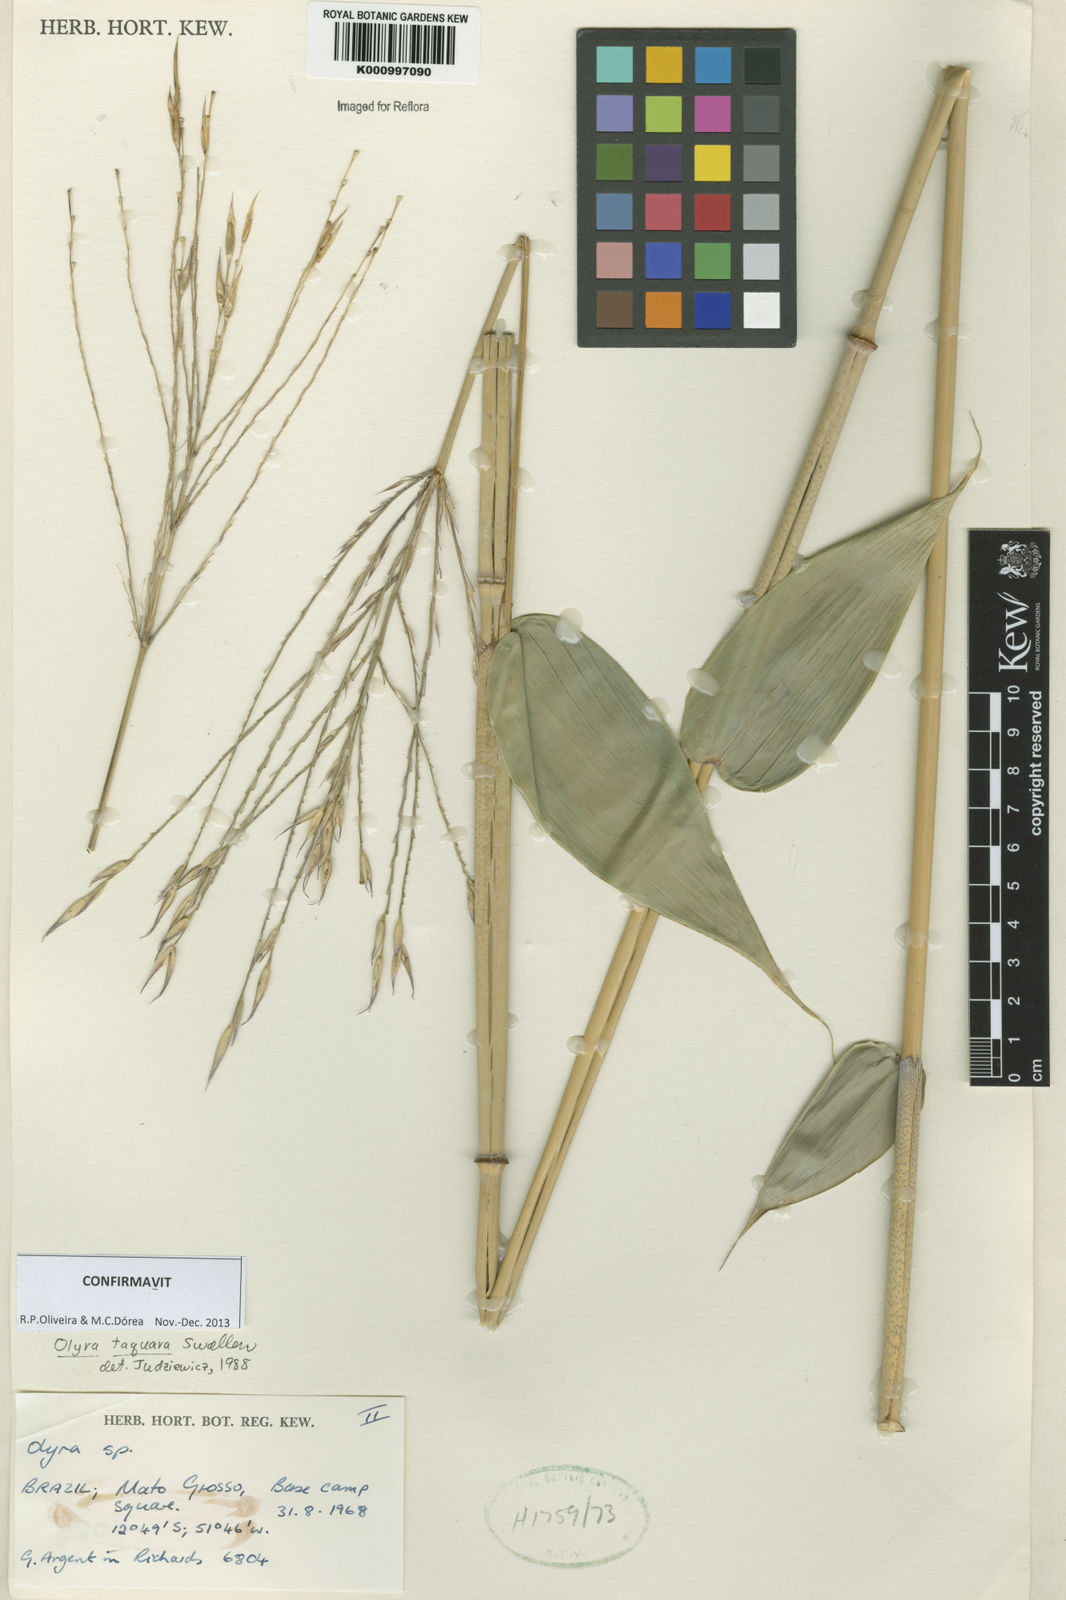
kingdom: Plantae
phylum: Tracheophyta
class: Liliopsida
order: Poales
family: Poaceae
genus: Olyra
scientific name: Olyra taquara
